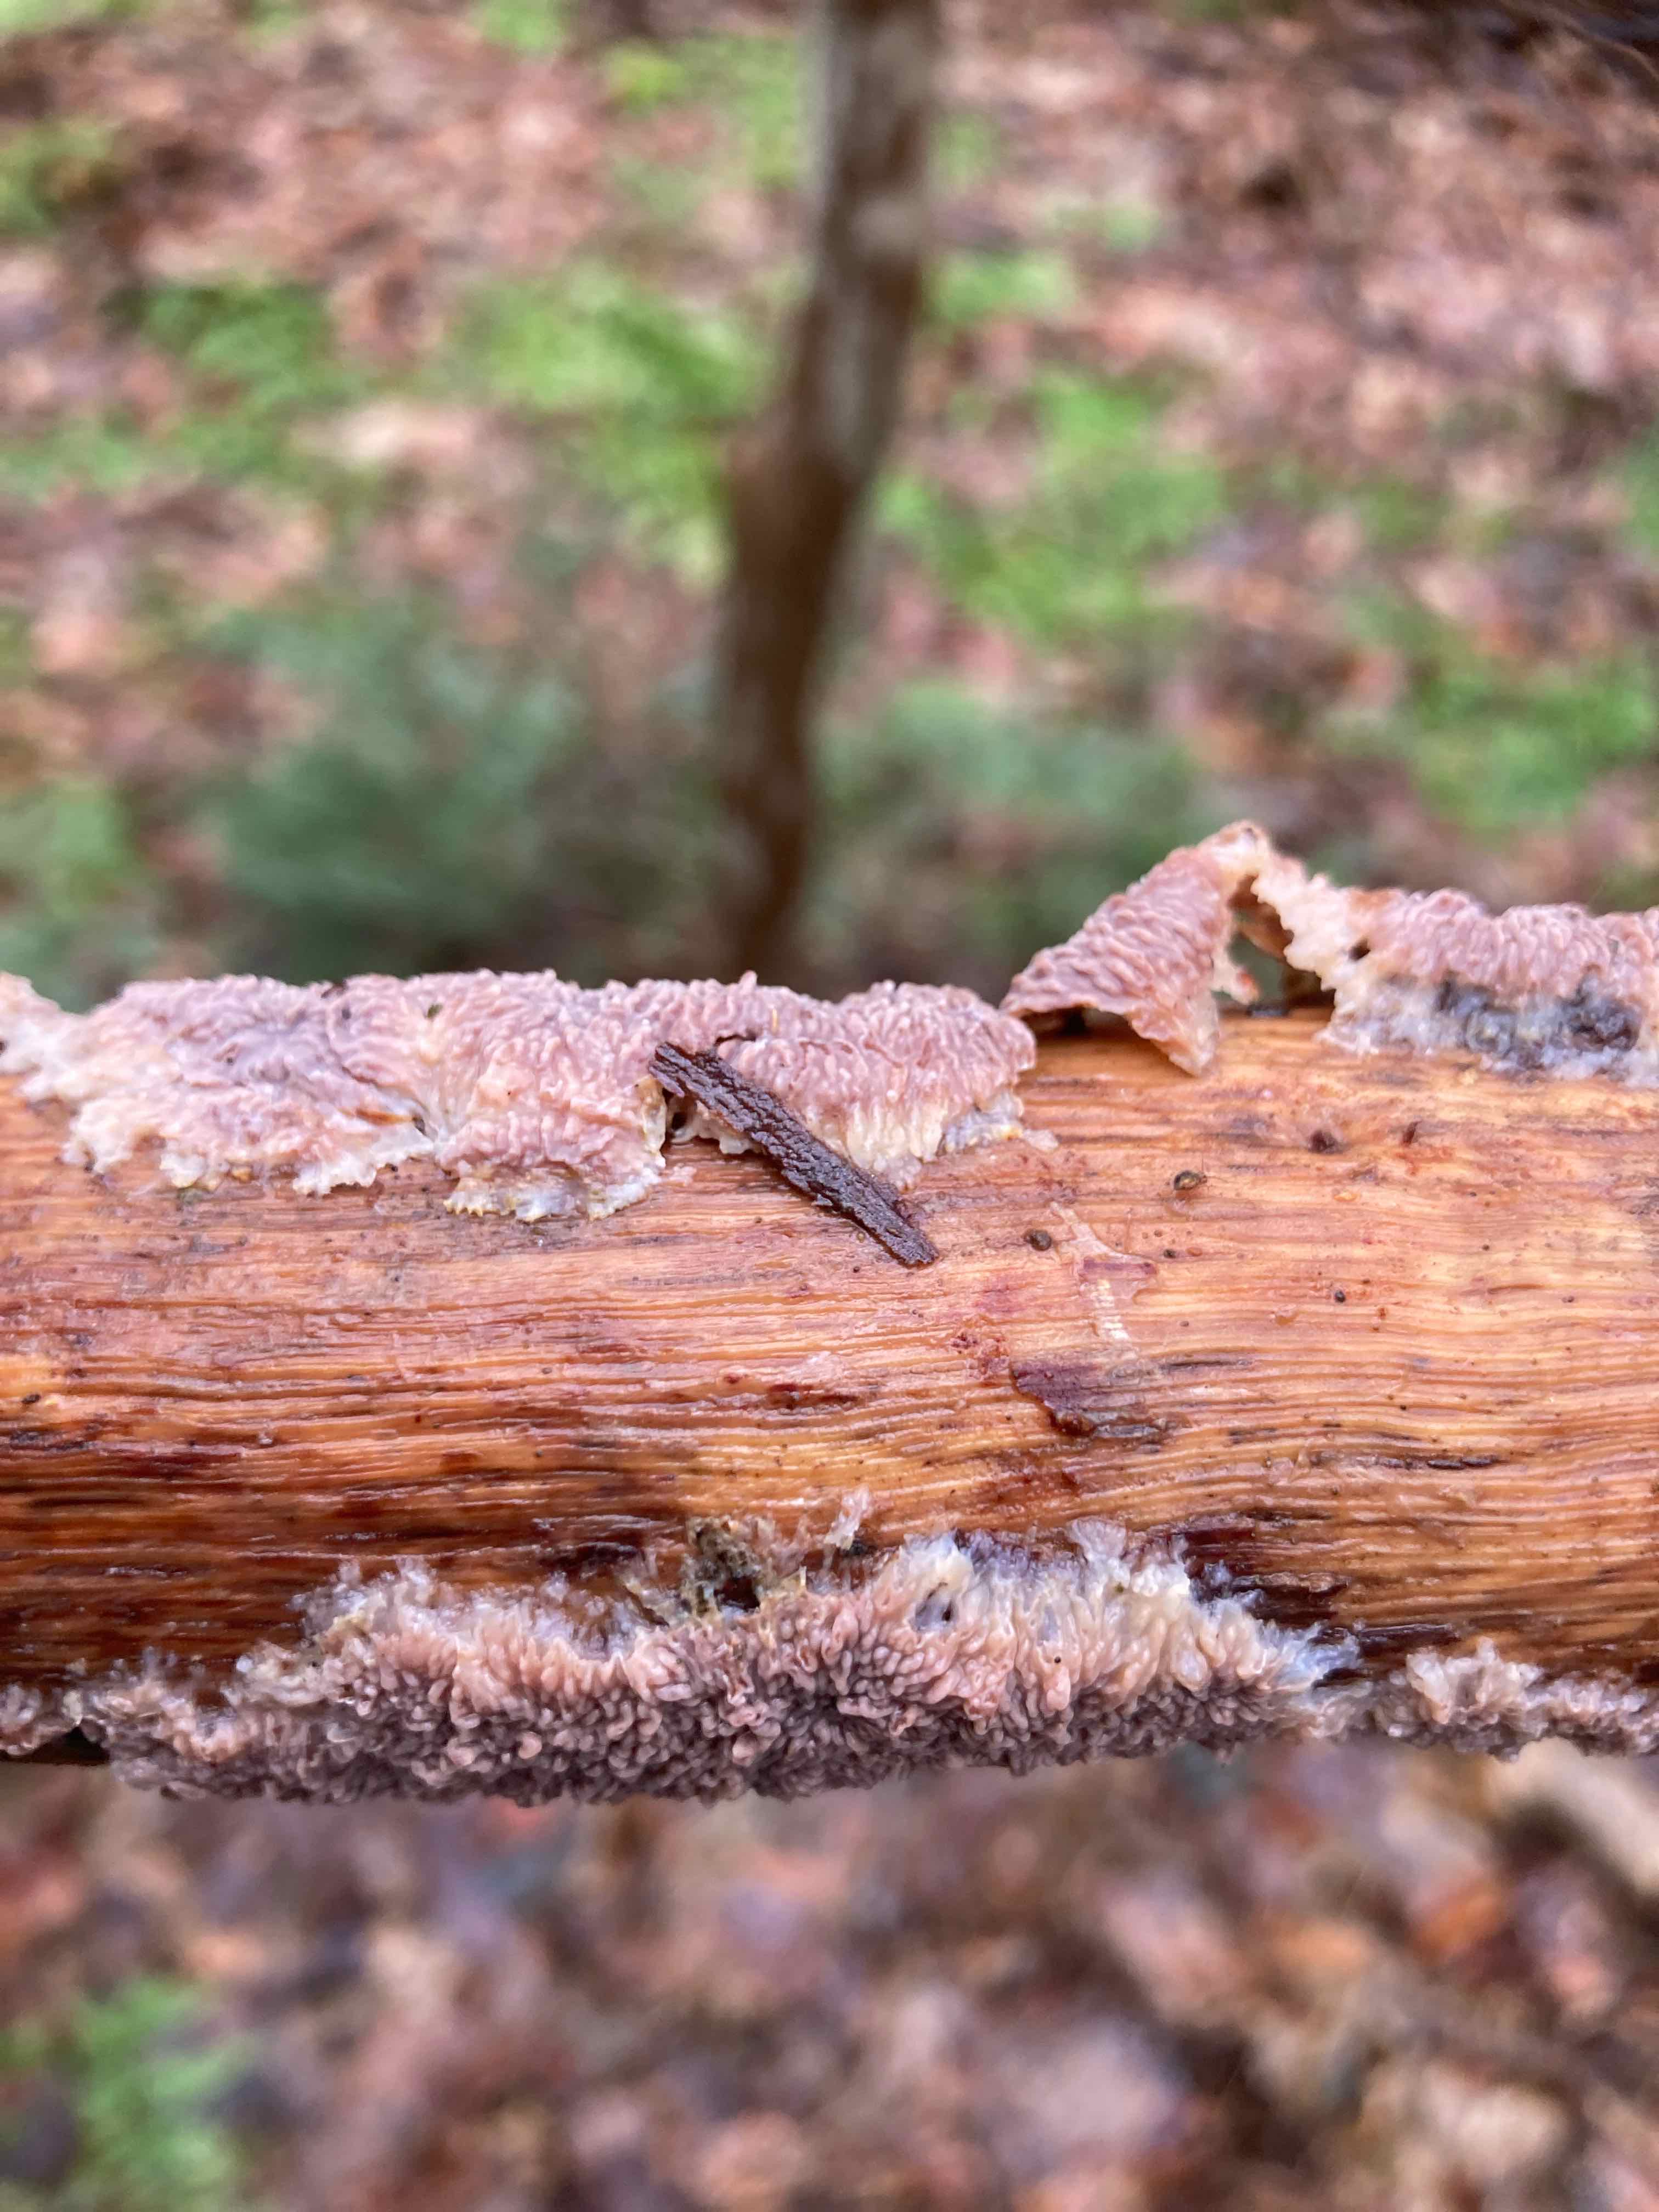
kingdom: Fungi
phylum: Basidiomycota
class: Agaricomycetes
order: Polyporales
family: Meruliaceae
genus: Phlebia
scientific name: Phlebia radiata
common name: stråle-åresvamp
